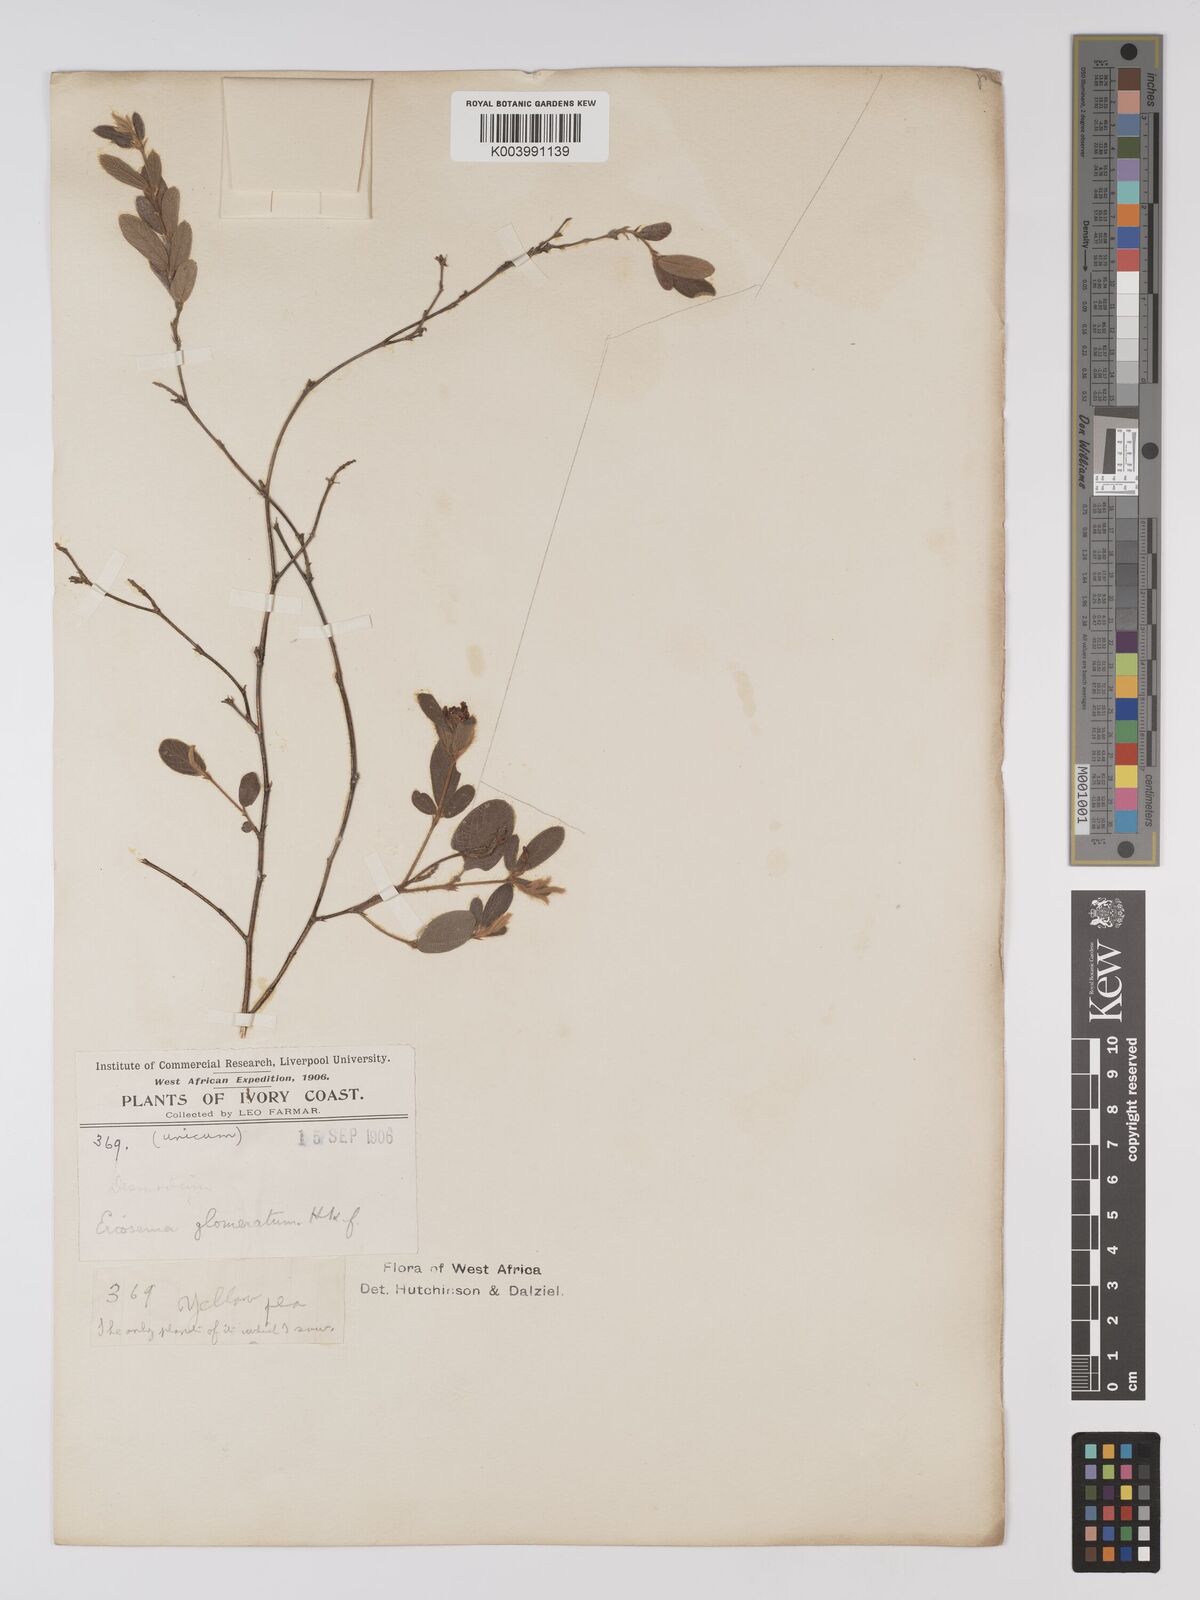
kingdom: Plantae
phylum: Tracheophyta
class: Magnoliopsida
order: Fabales
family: Fabaceae
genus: Eriosema
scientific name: Eriosema glomeratum
